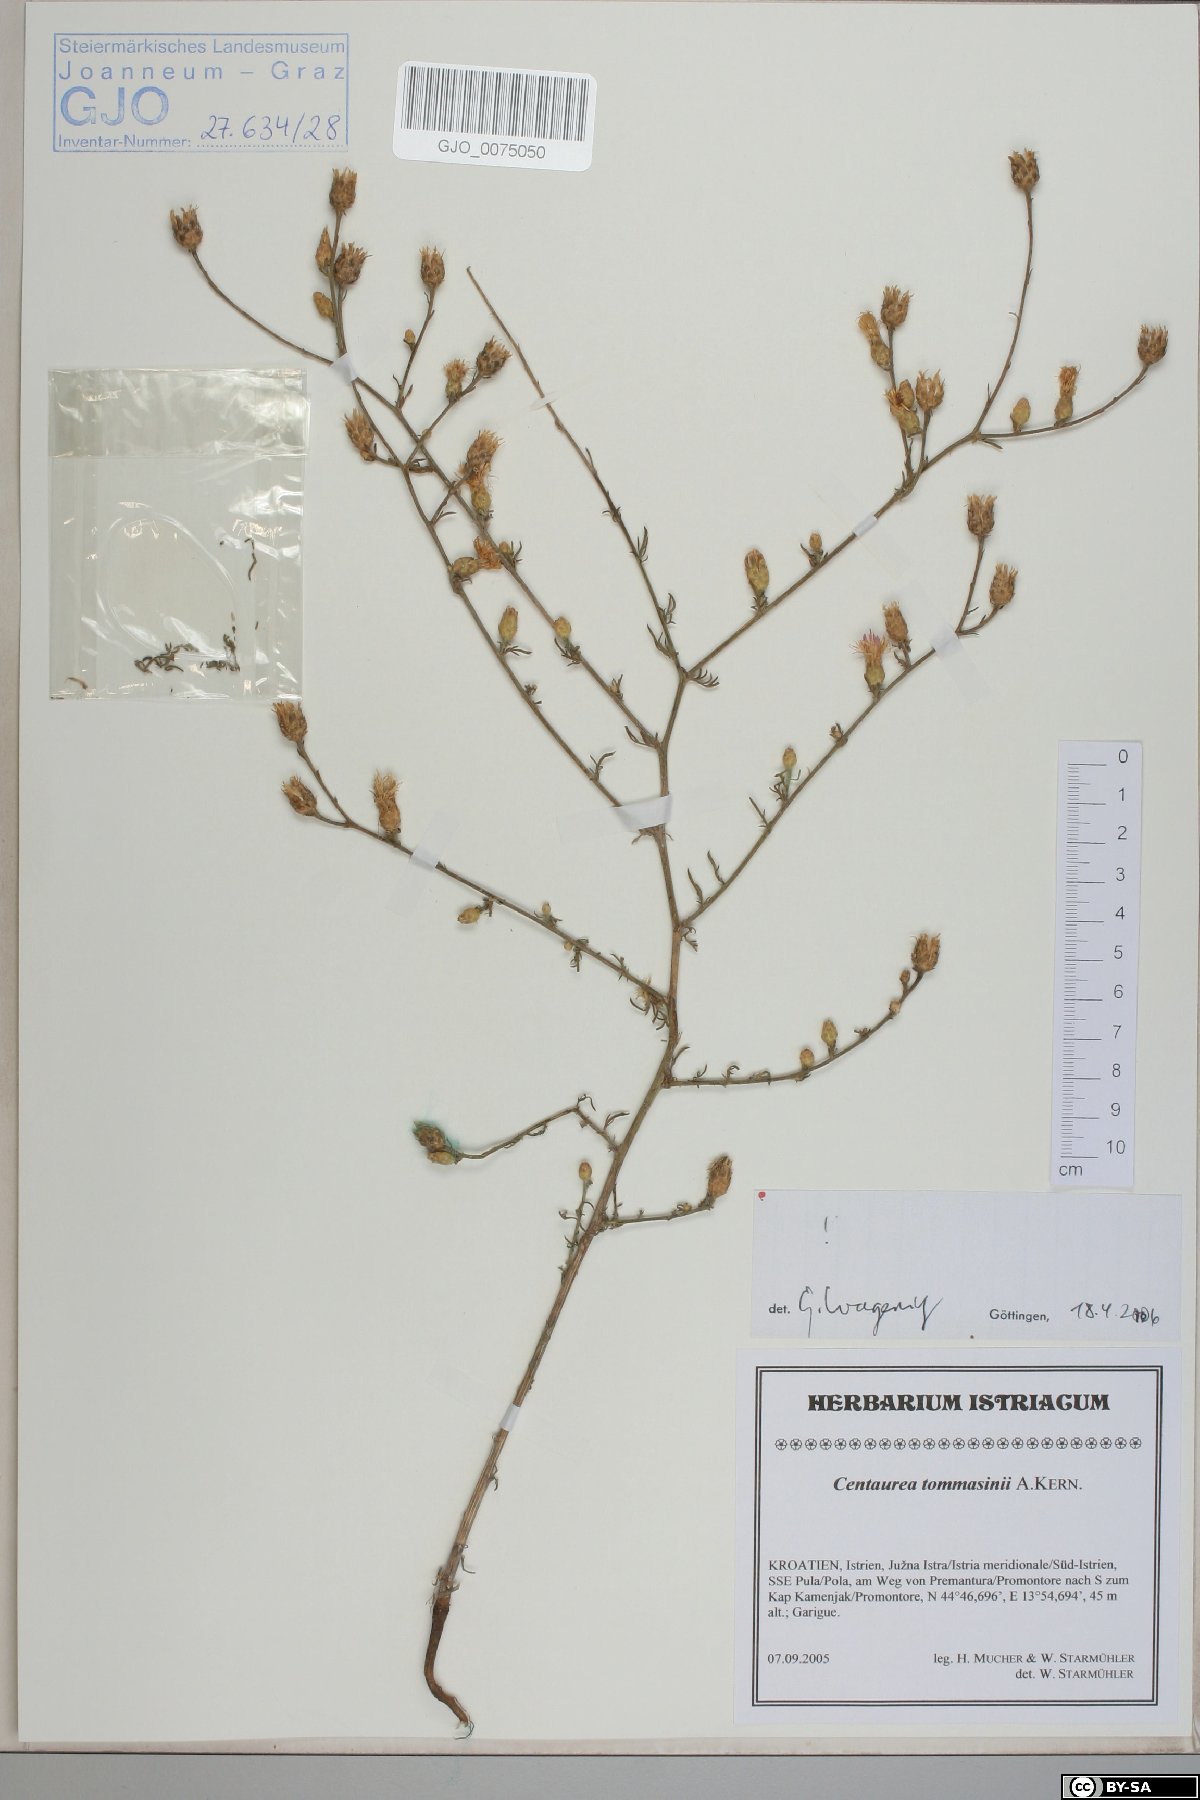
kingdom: Plantae
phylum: Tracheophyta
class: Magnoliopsida
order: Asterales
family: Asteraceae
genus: Centaurea
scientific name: Centaurea tommasinii
